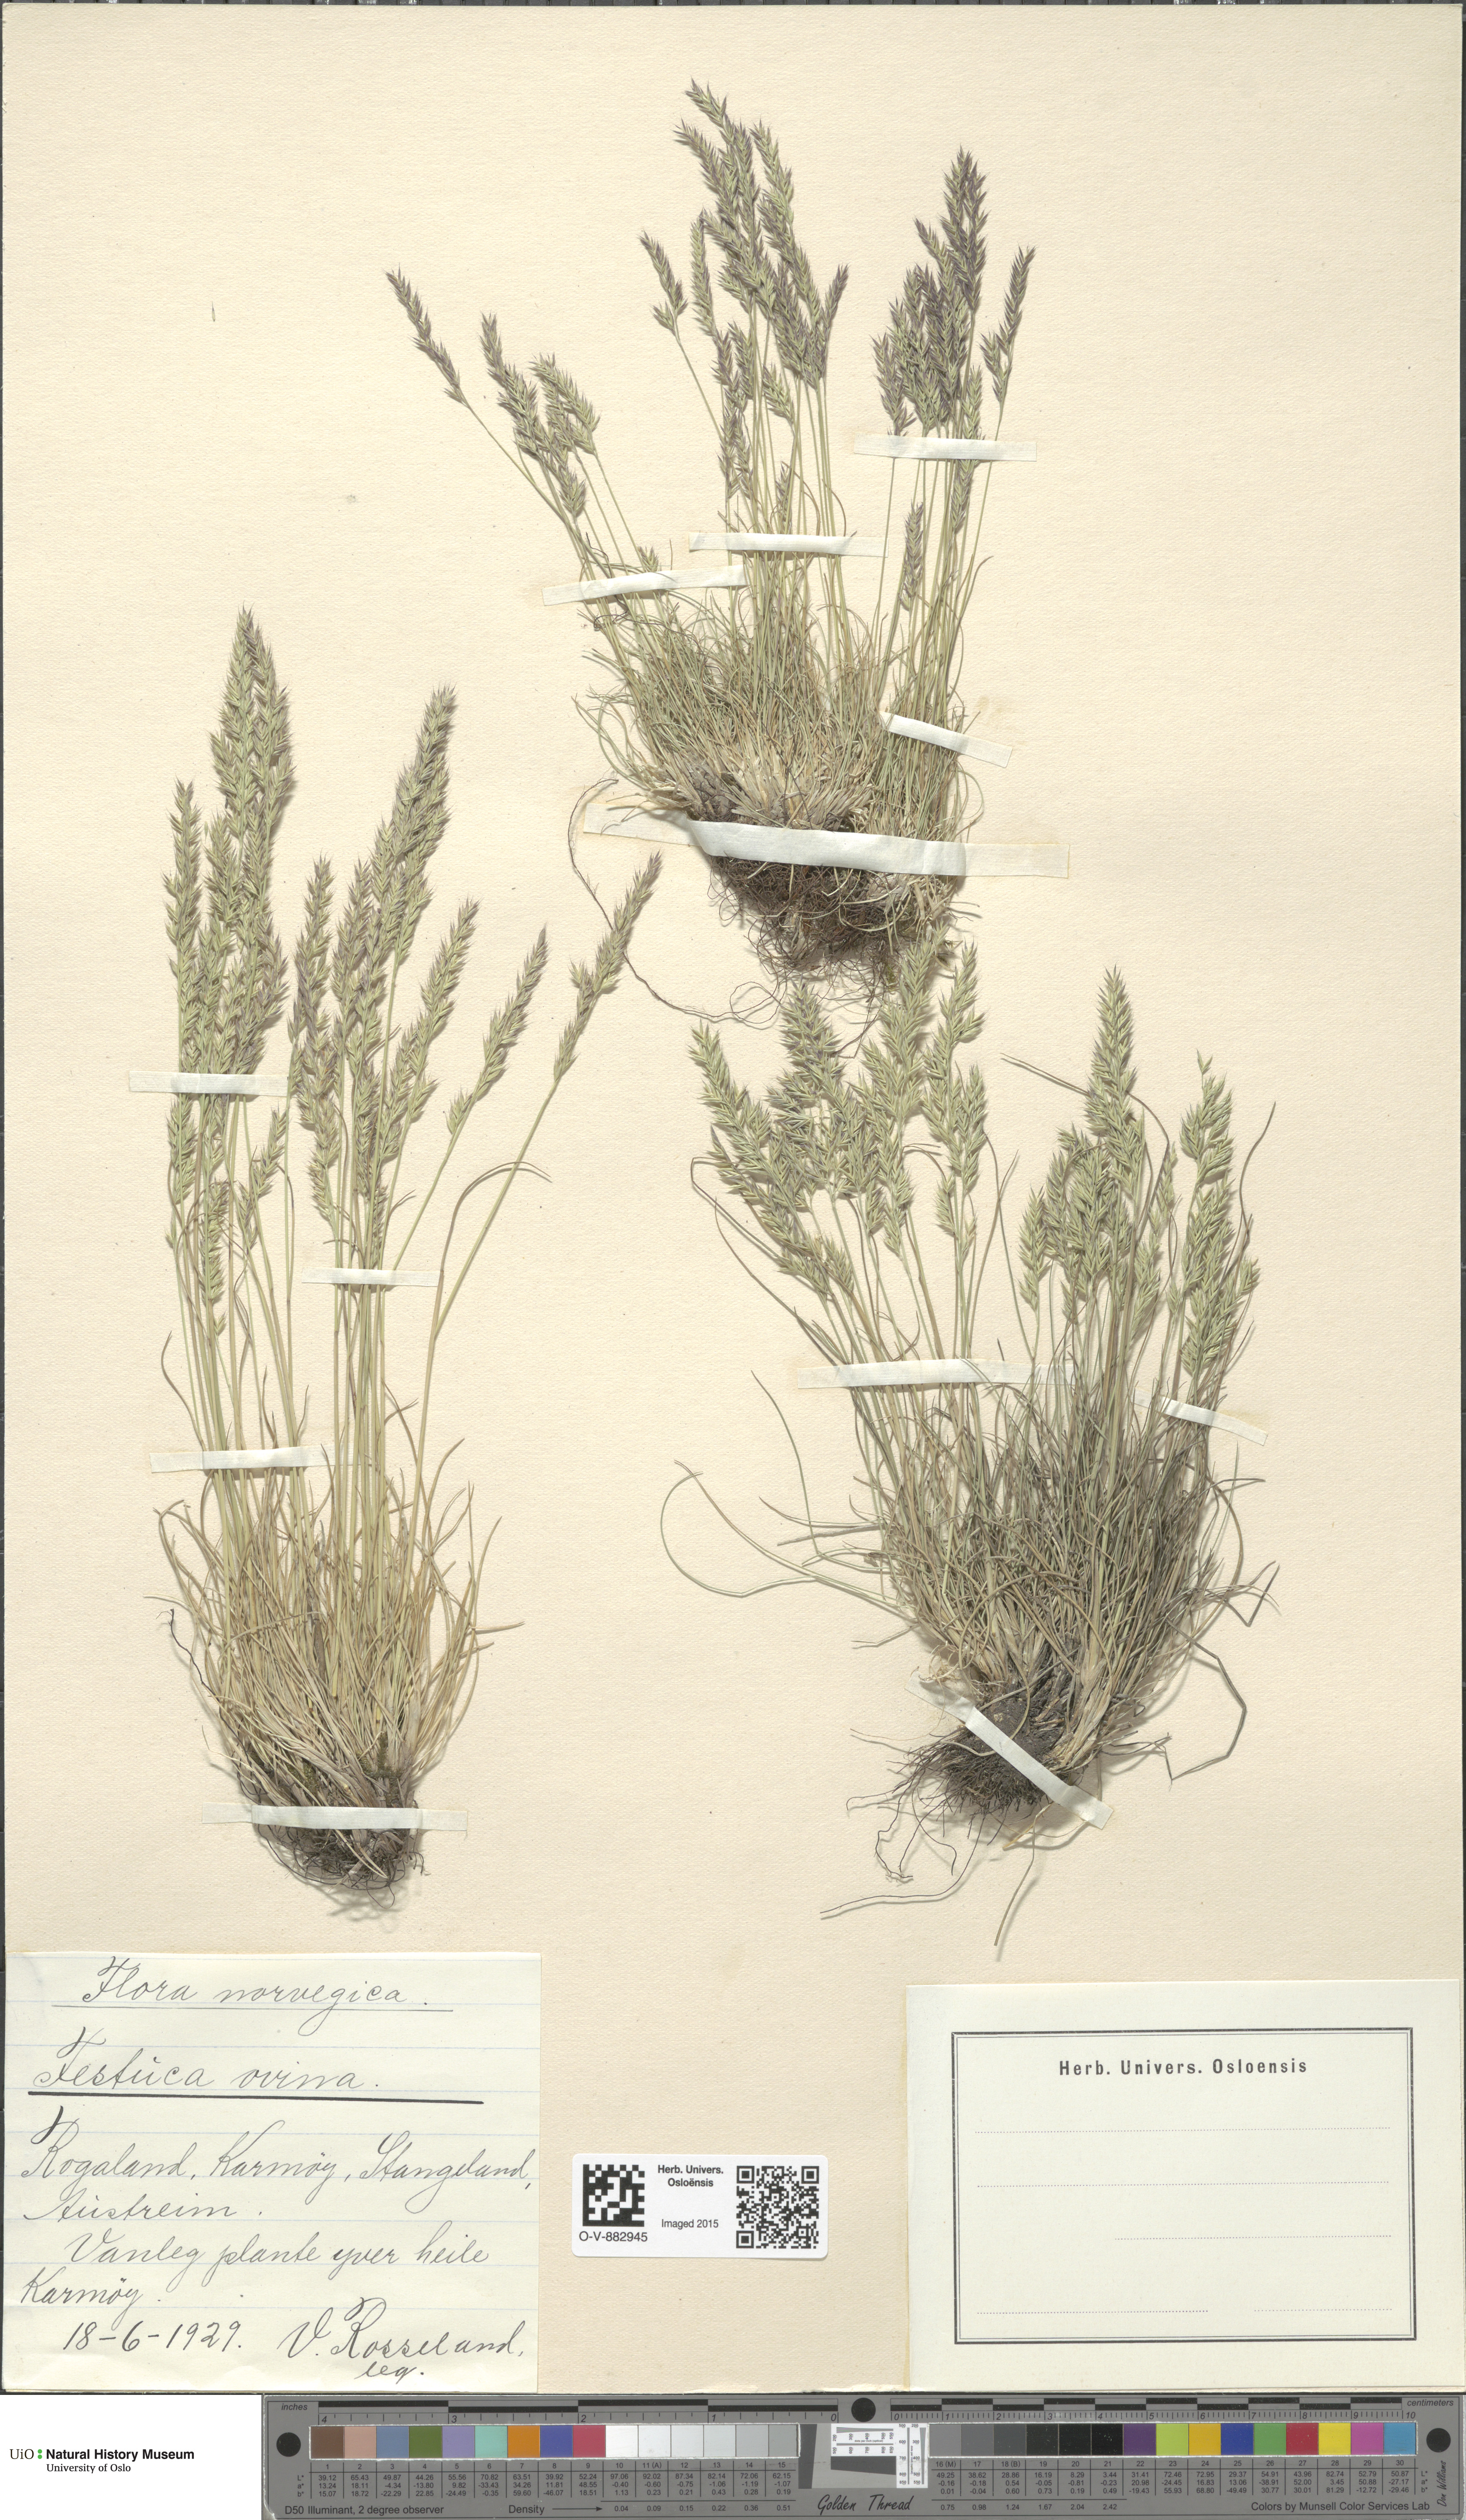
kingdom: Plantae
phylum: Tracheophyta
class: Liliopsida
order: Poales
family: Poaceae
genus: Festuca
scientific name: Festuca ovina
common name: Sheep fescue
